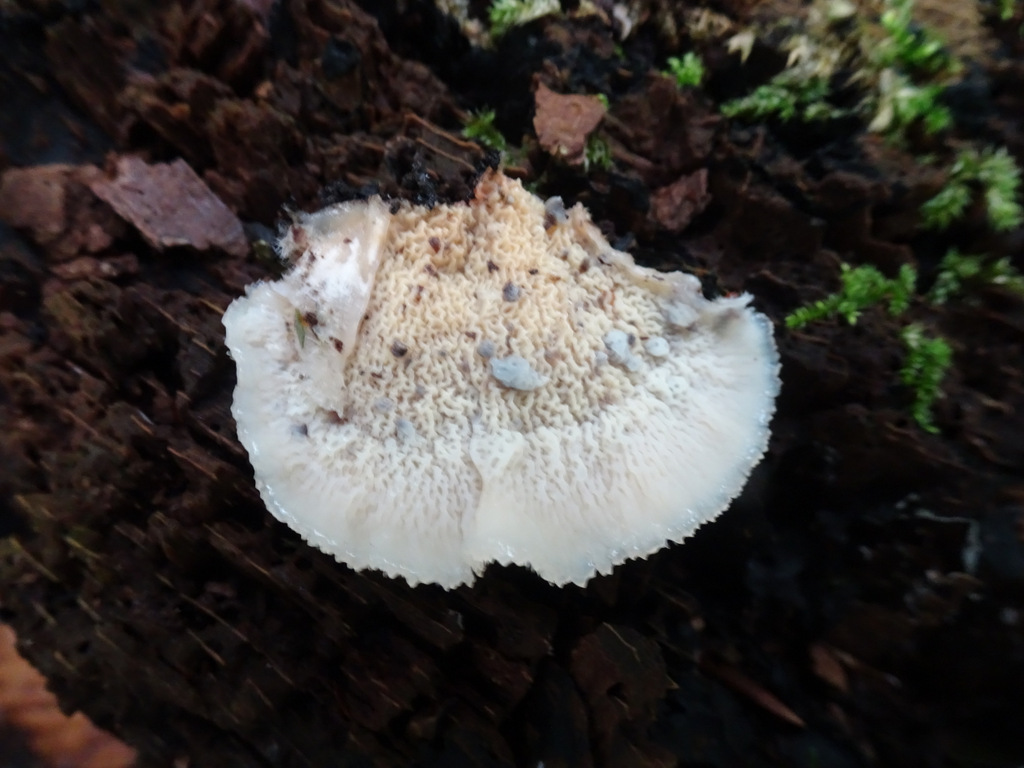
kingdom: Fungi
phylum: Basidiomycota
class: Agaricomycetes
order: Polyporales
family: Meruliaceae
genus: Phlebia
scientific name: Phlebia tremellosa
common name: bævrende åresvamp
